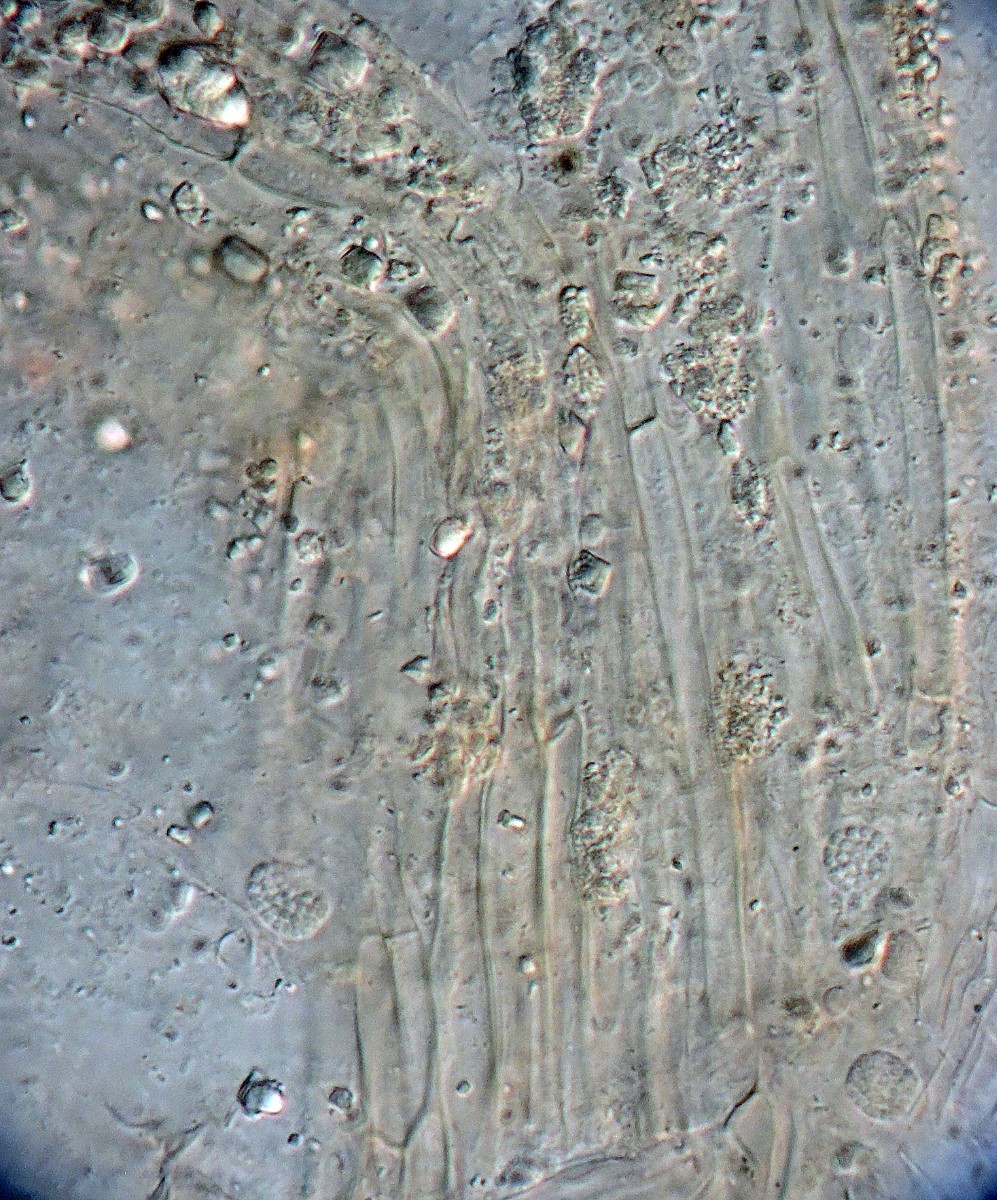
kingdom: Fungi
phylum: Basidiomycota
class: Agaricomycetes
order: Agaricales
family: Typhulaceae
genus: Typhula
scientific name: Typhula spathulata
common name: aske-trådkølle
